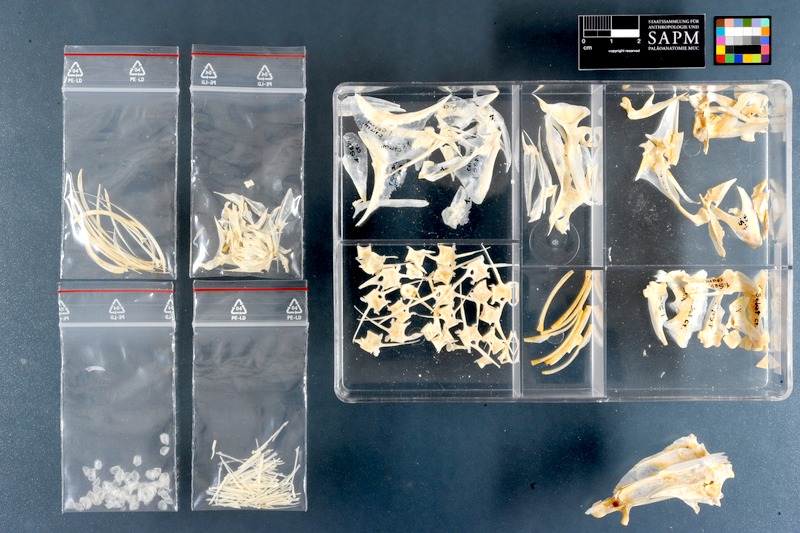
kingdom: Animalia
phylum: Chordata
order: Perciformes
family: Carangidae
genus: Selar
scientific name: Selar crumenophthalmus
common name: Bigeye scad
